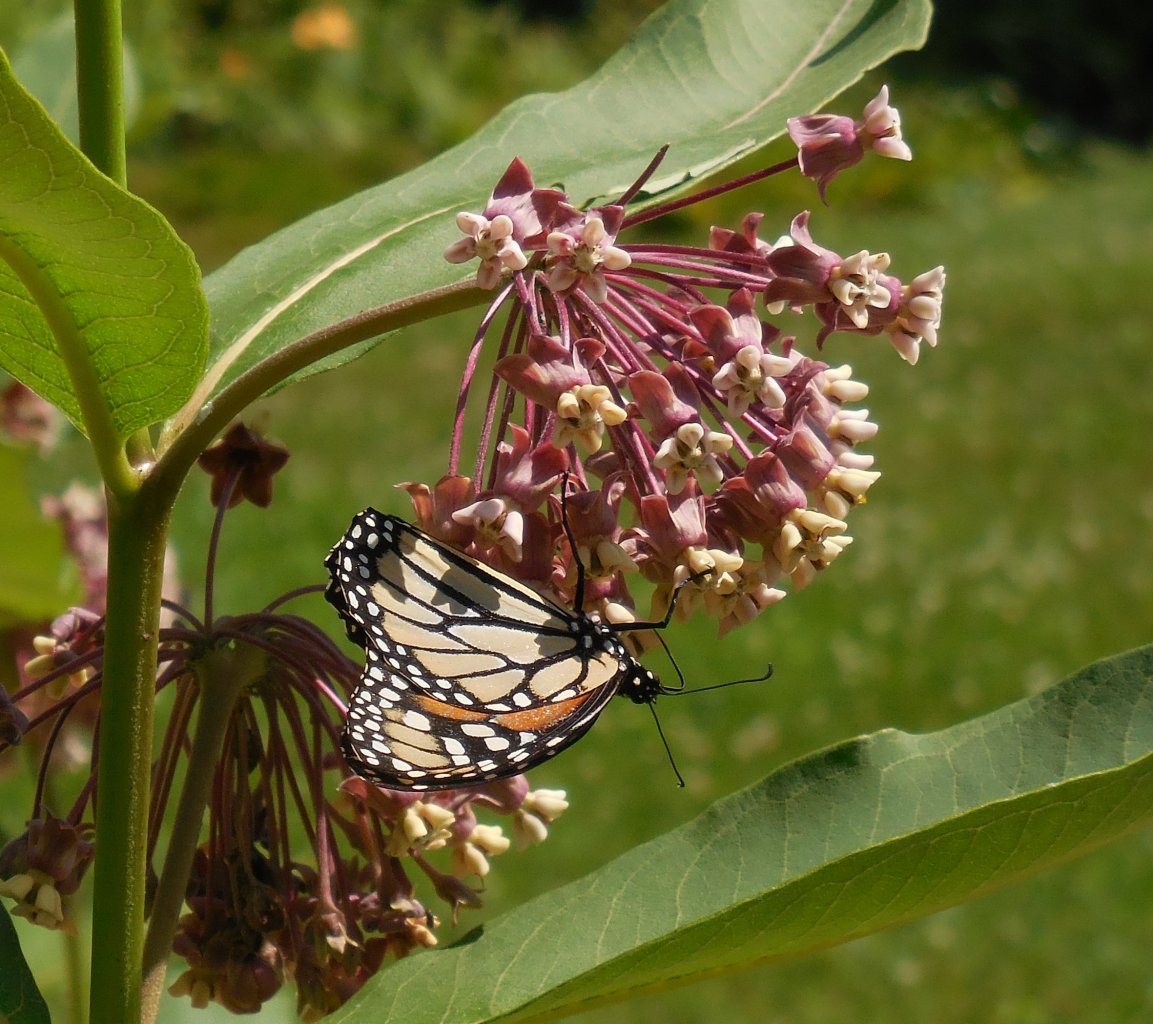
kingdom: Animalia
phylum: Arthropoda
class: Insecta
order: Lepidoptera
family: Nymphalidae
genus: Danaus
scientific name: Danaus plexippus
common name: Monarch
